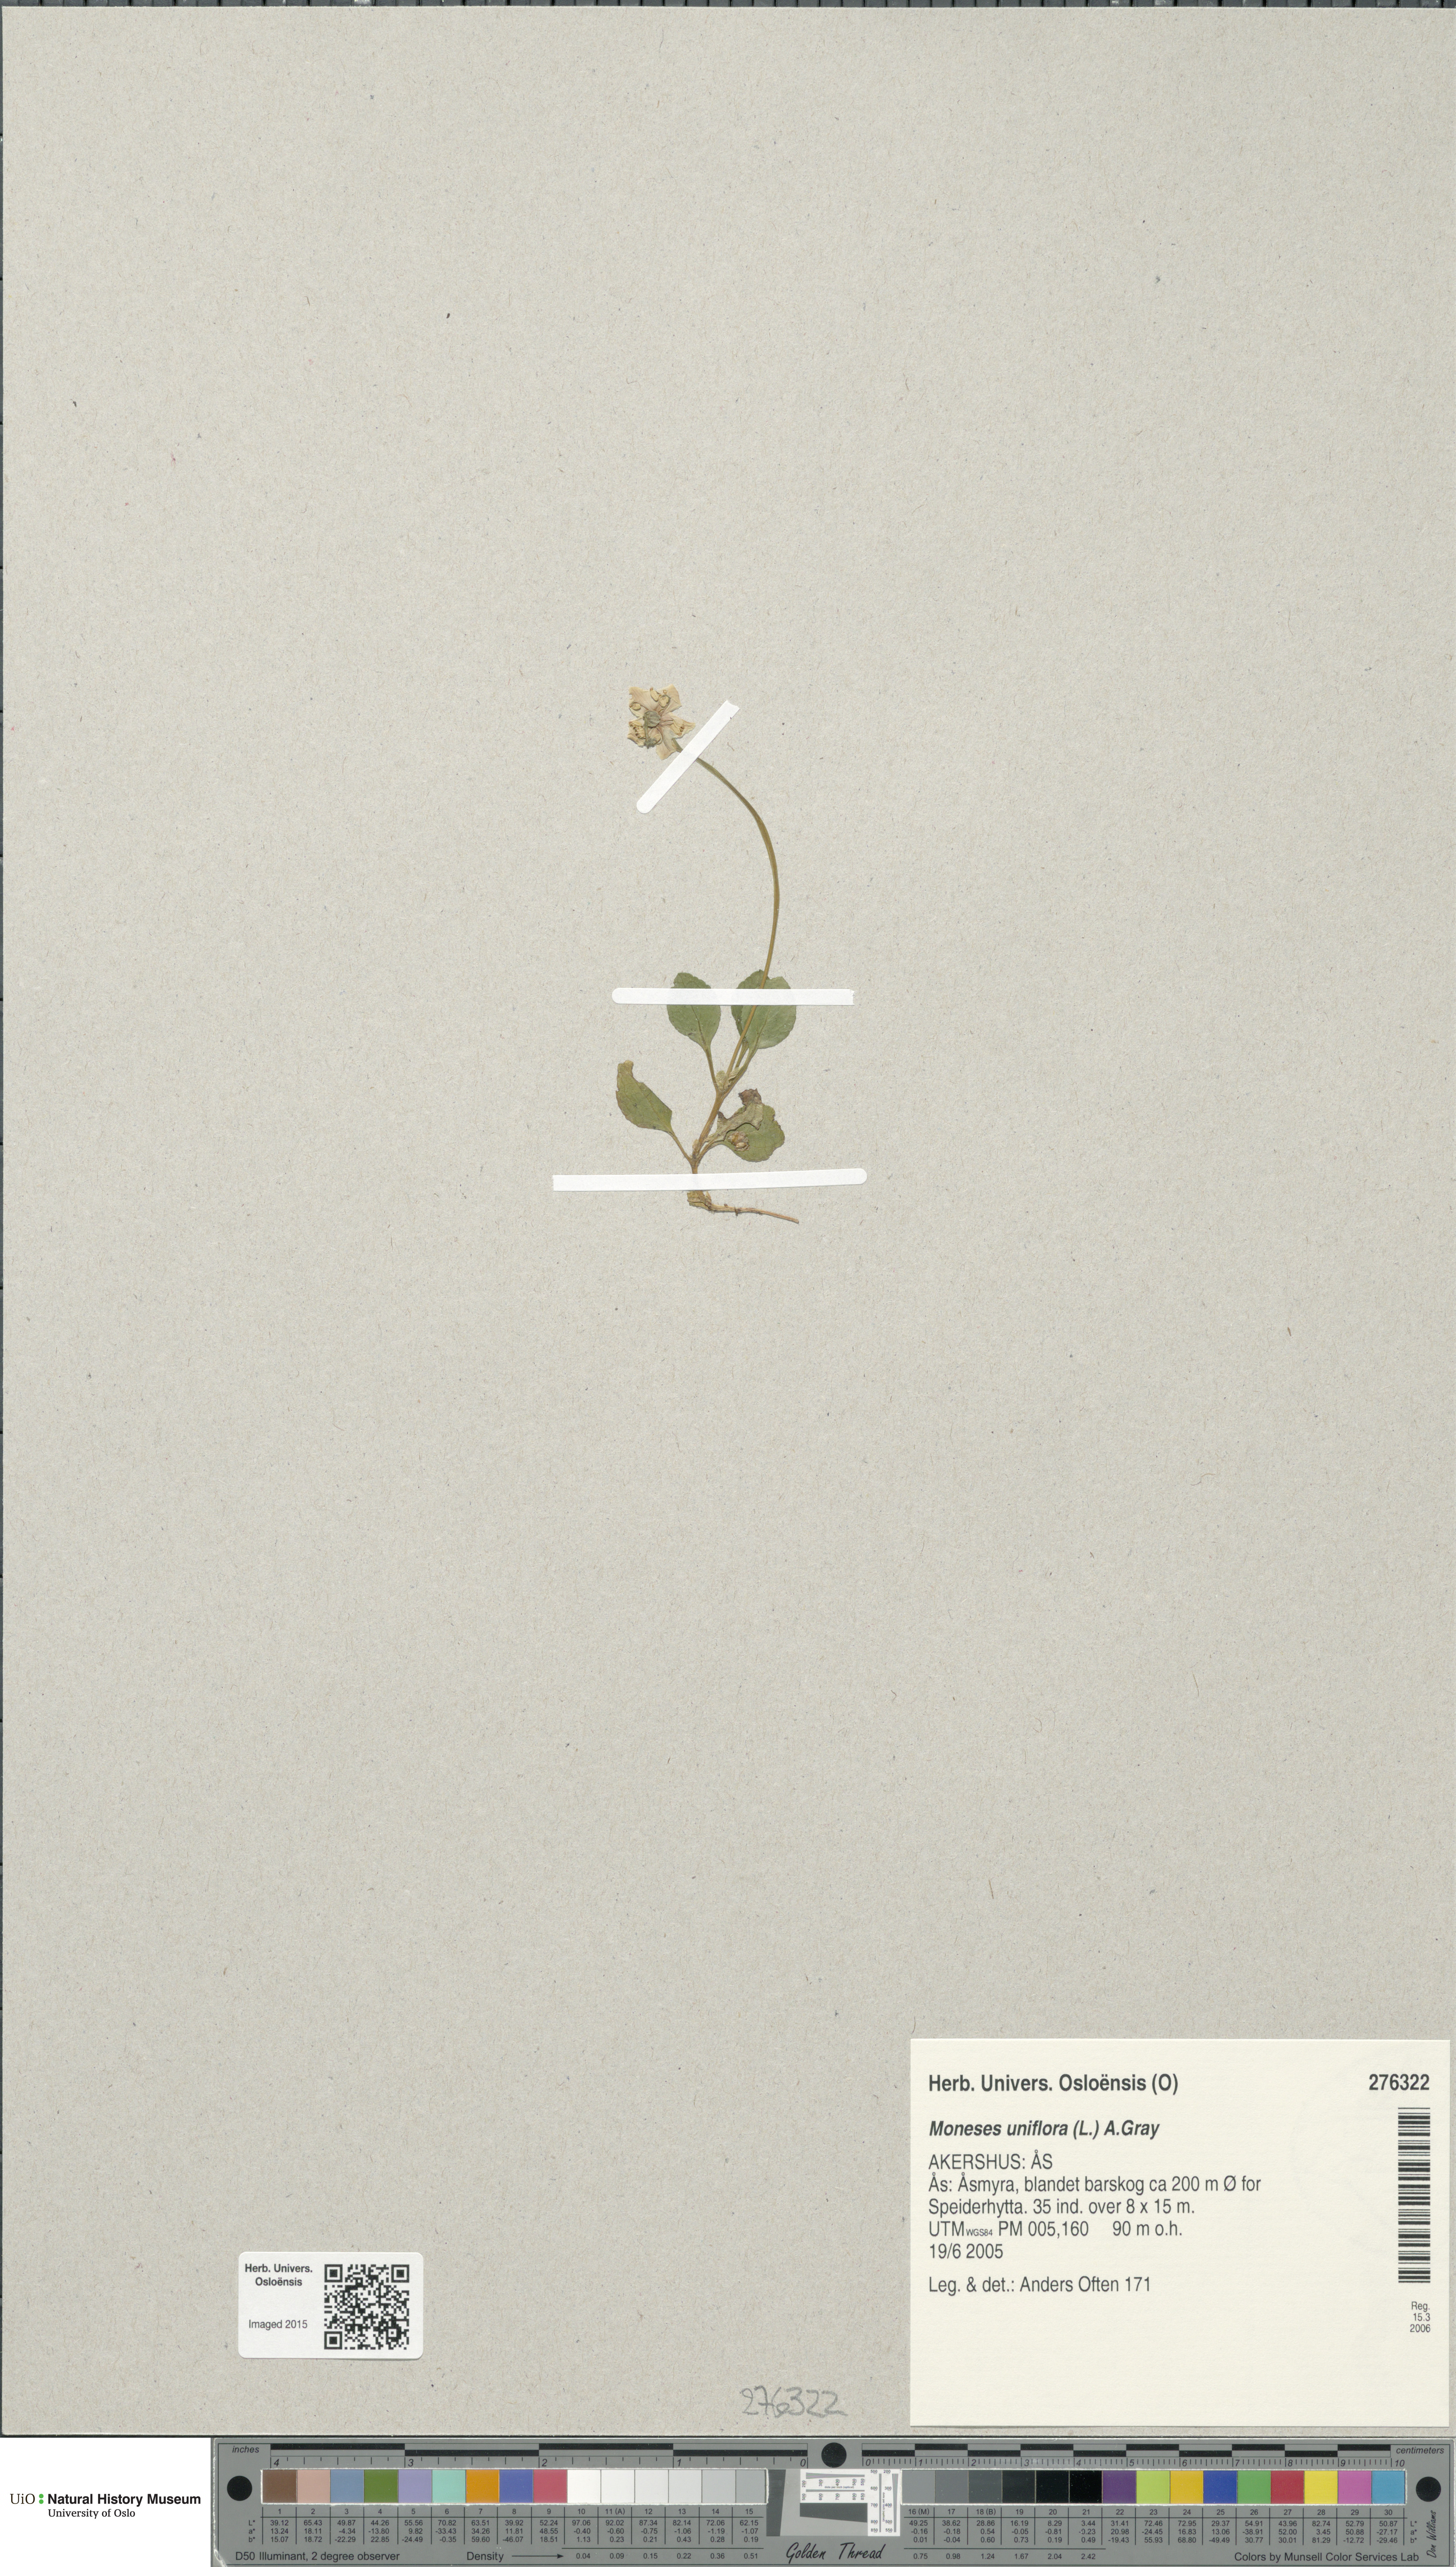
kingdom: Plantae
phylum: Tracheophyta
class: Magnoliopsida
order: Ericales
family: Ericaceae
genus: Moneses
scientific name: Moneses uniflora
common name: One-flowered wintergreen
